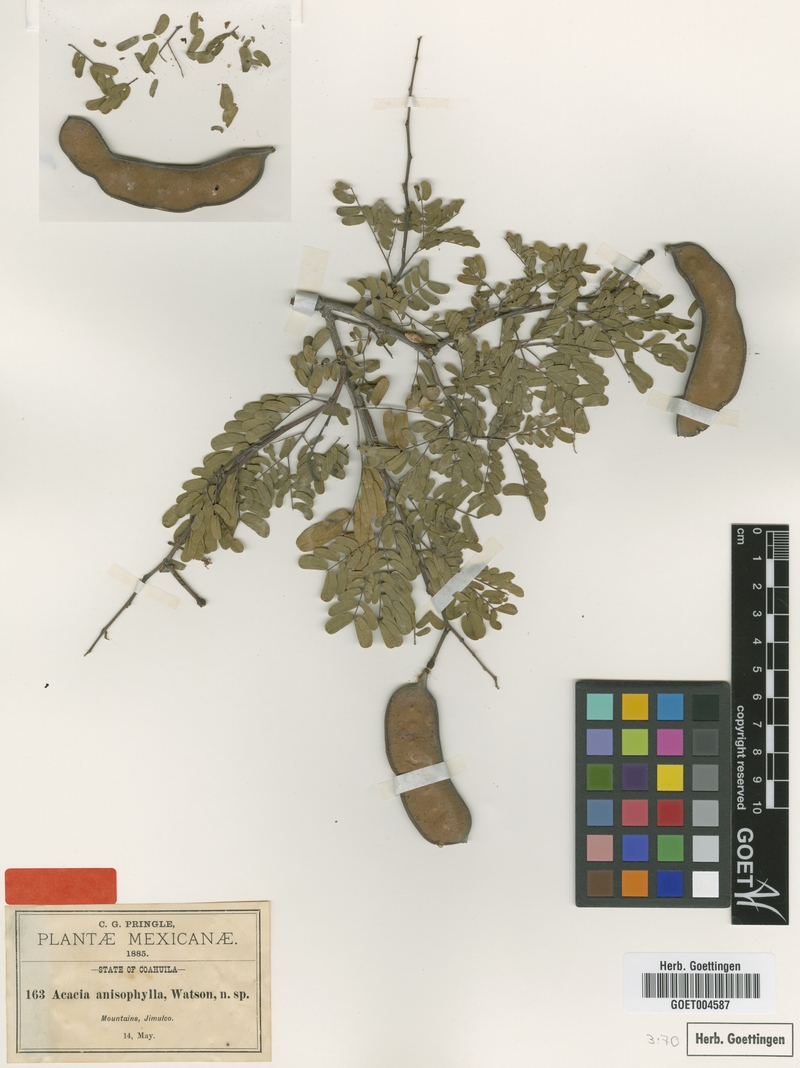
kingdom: Plantae
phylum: Tracheophyta
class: Magnoliopsida
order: Fabales
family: Fabaceae
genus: Senegalia
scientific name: Senegalia anisophylla
